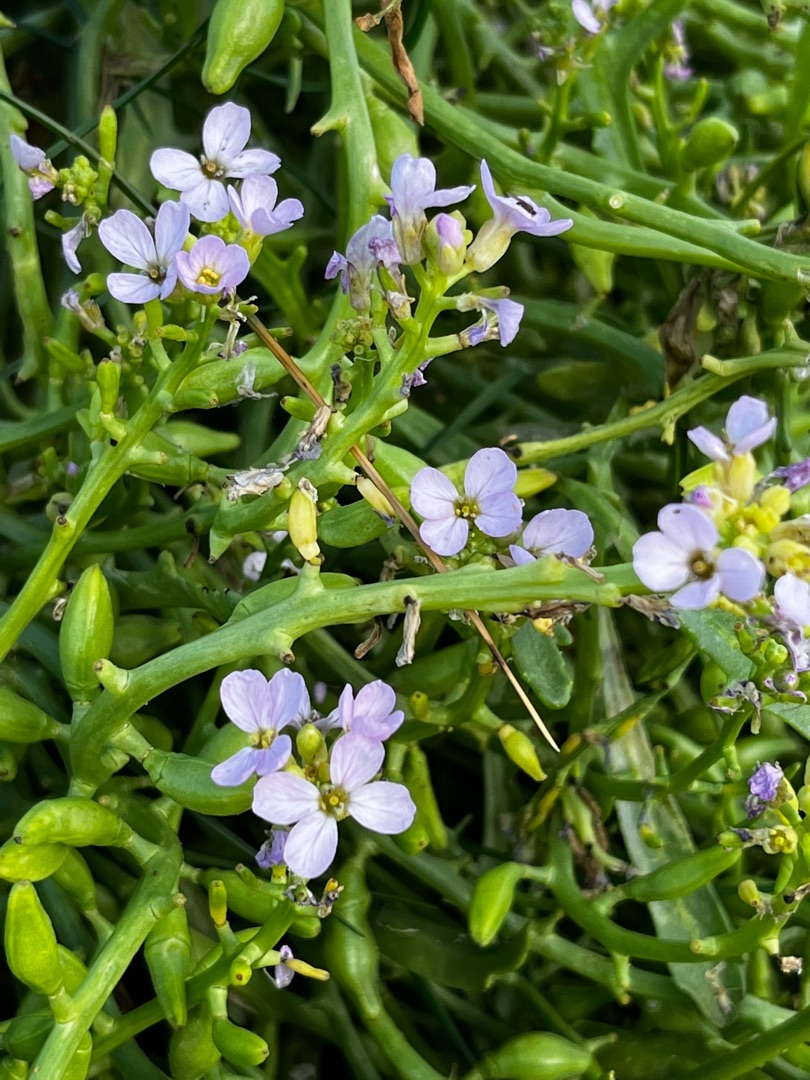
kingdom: Plantae
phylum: Tracheophyta
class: Magnoliopsida
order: Brassicales
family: Brassicaceae
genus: Cakile
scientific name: Cakile maritima
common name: Strandsennep
